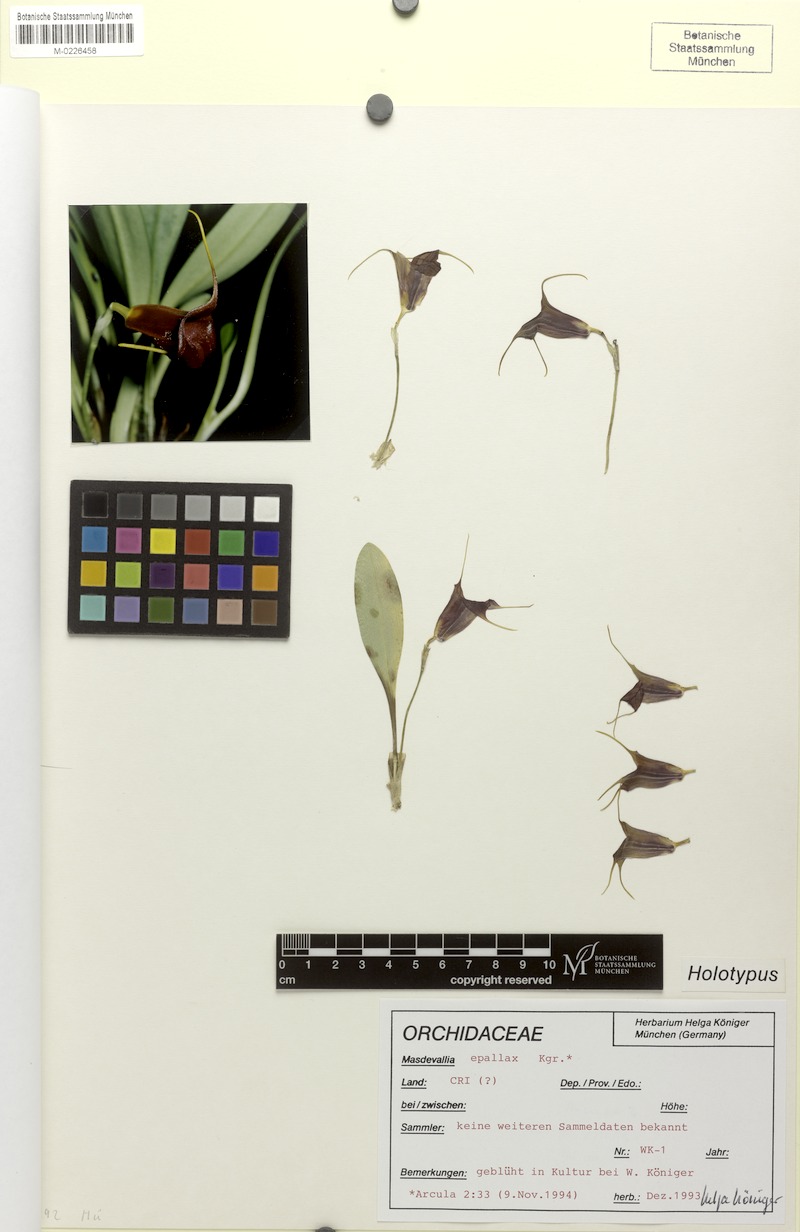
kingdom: Plantae
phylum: Tracheophyta
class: Liliopsida
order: Asparagales
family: Orchidaceae
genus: Masdevallia
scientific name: Masdevallia epallax
